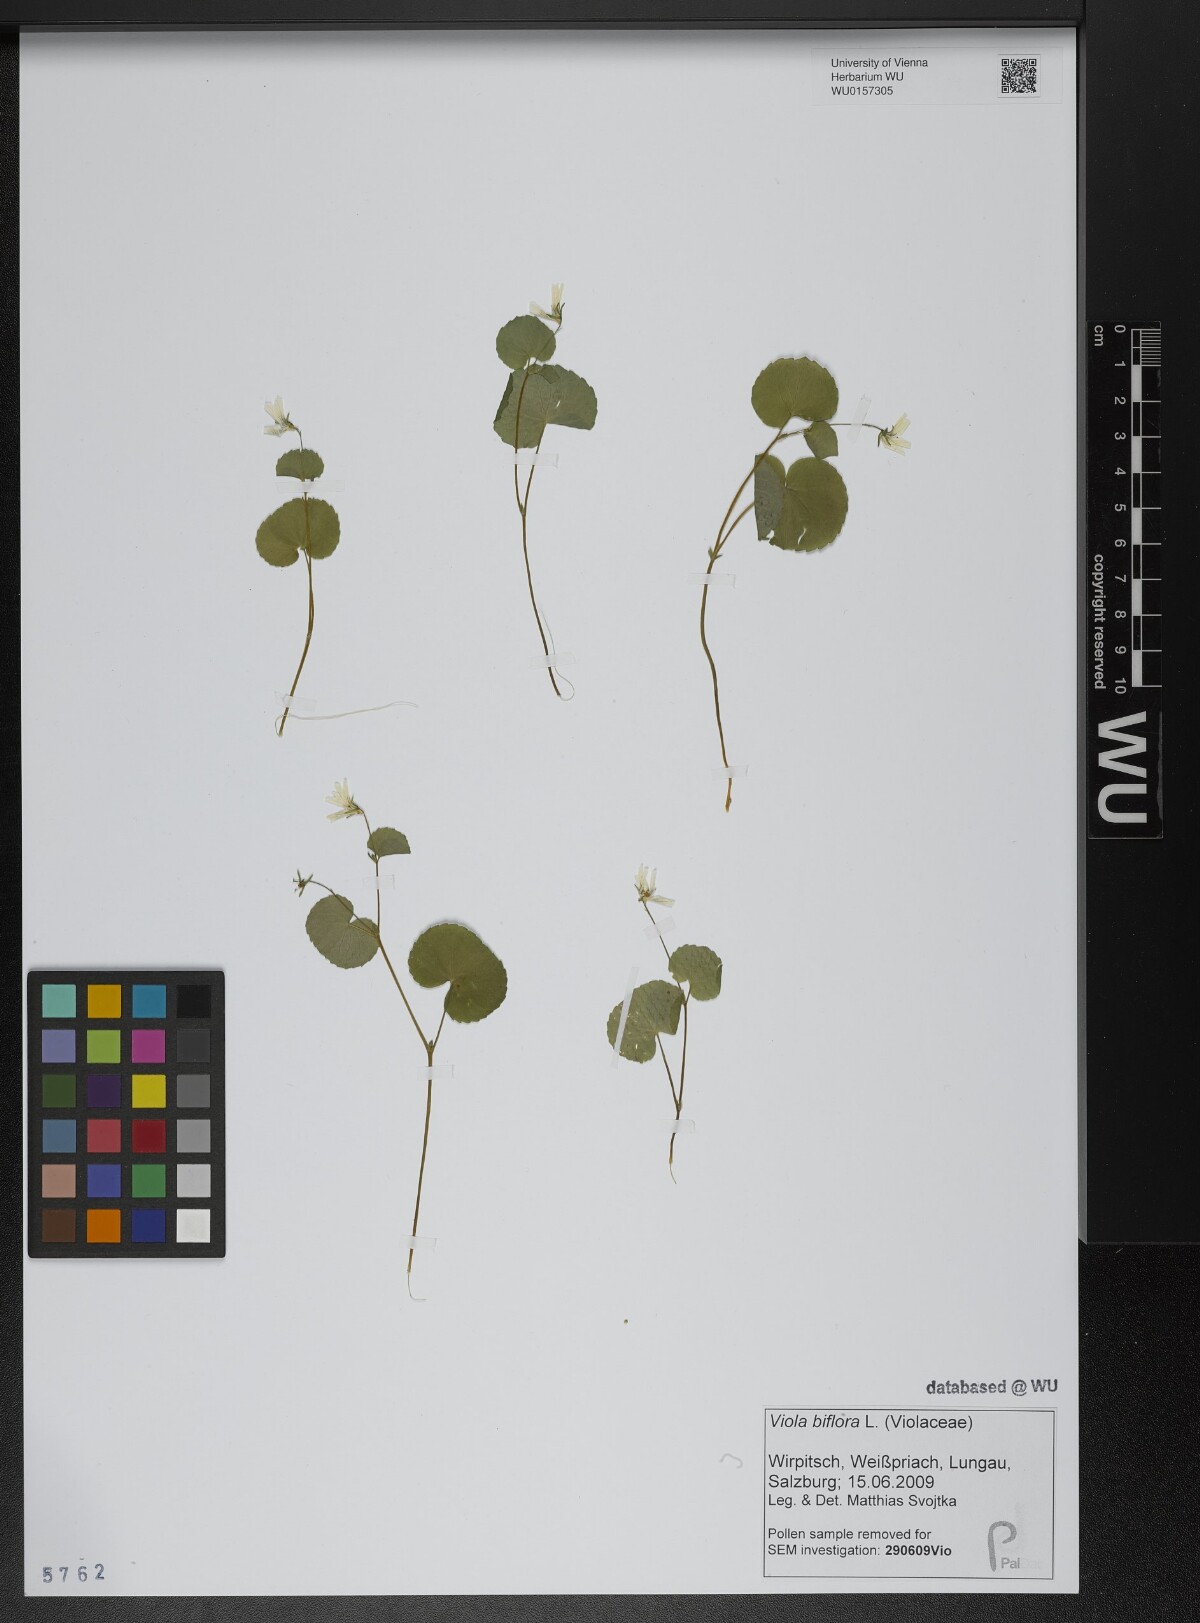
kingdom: Plantae
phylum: Tracheophyta
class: Magnoliopsida
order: Malpighiales
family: Violaceae
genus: Viola
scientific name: Viola biflora
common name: Alpine yellow violet
